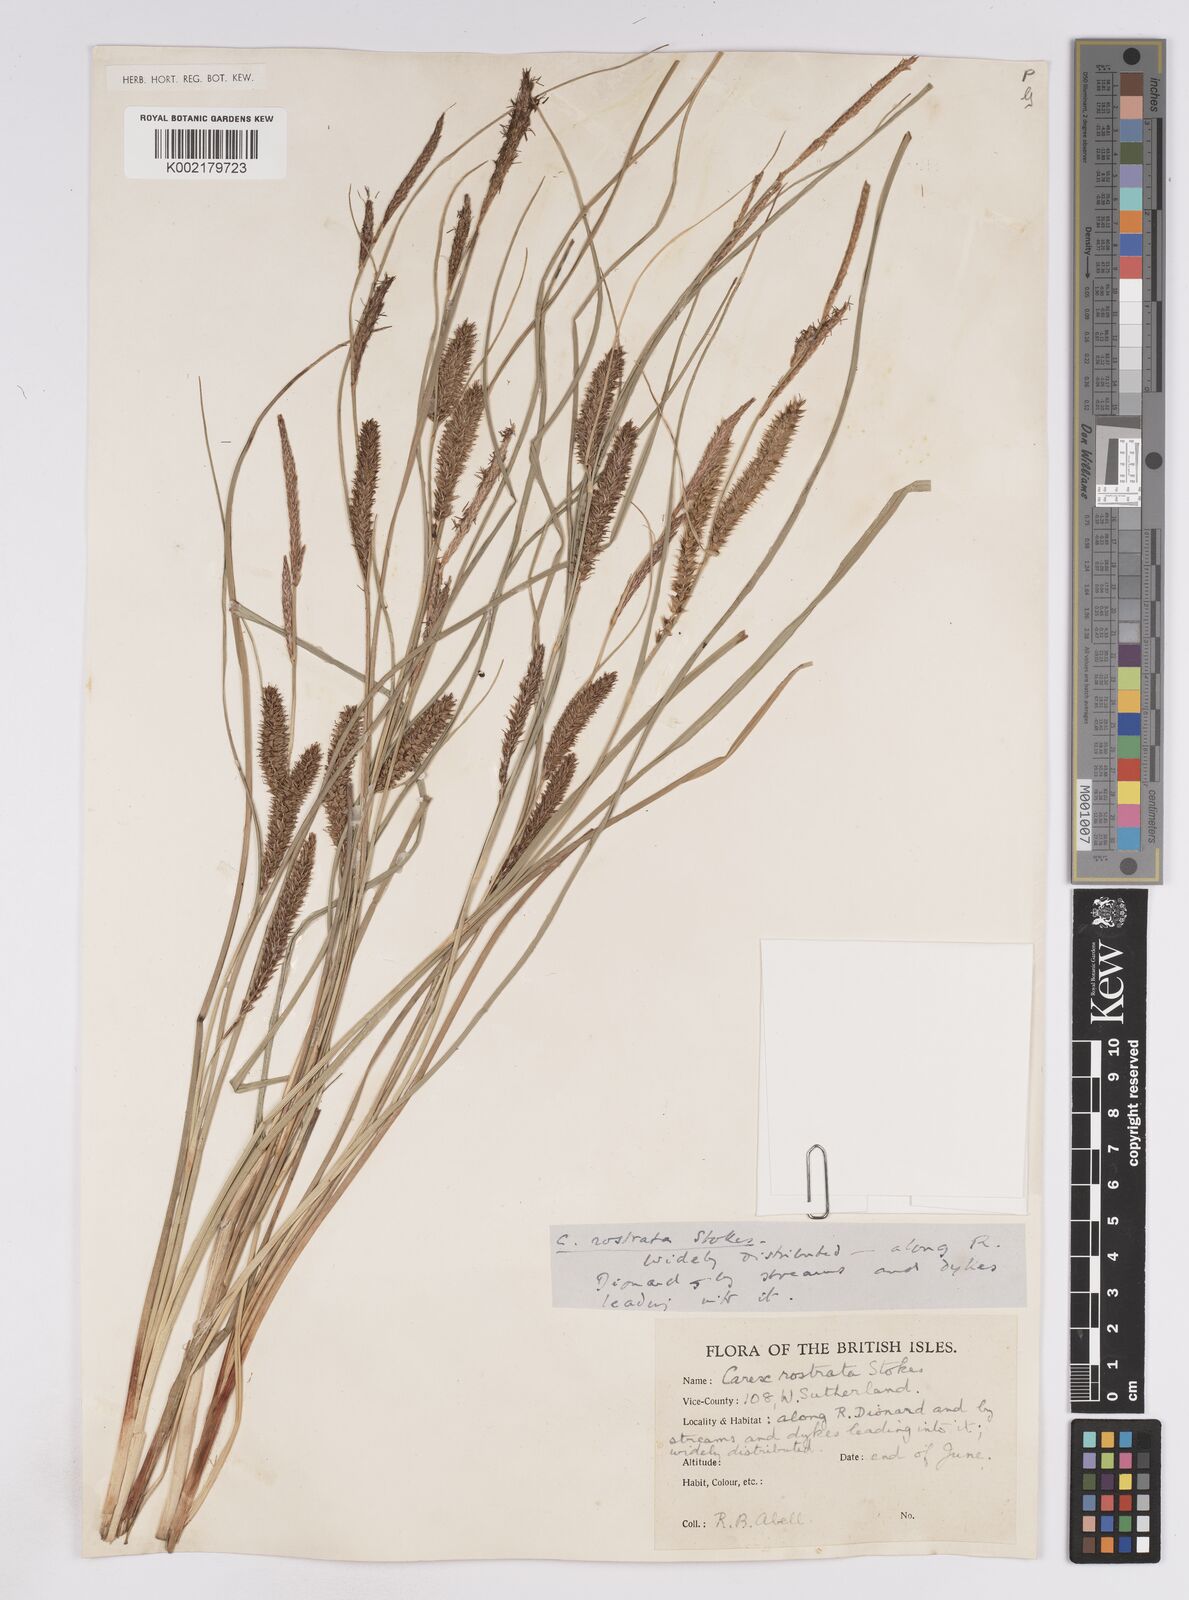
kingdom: Plantae
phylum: Tracheophyta
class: Liliopsida
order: Poales
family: Cyperaceae
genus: Carex
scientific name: Carex rostrata
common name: Bottle sedge
